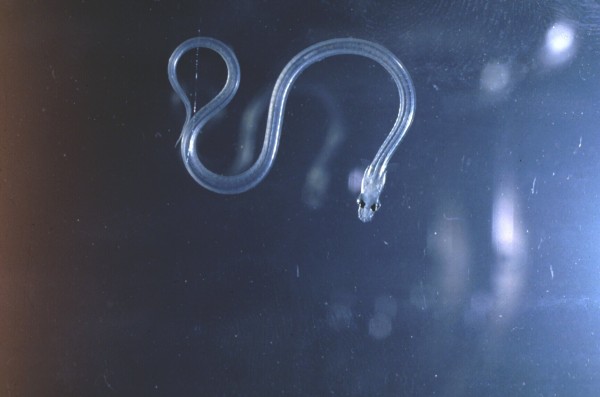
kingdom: Animalia
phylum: Chordata
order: Anguilliformes
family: Anguillidae
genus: Anguilla
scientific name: Anguilla
